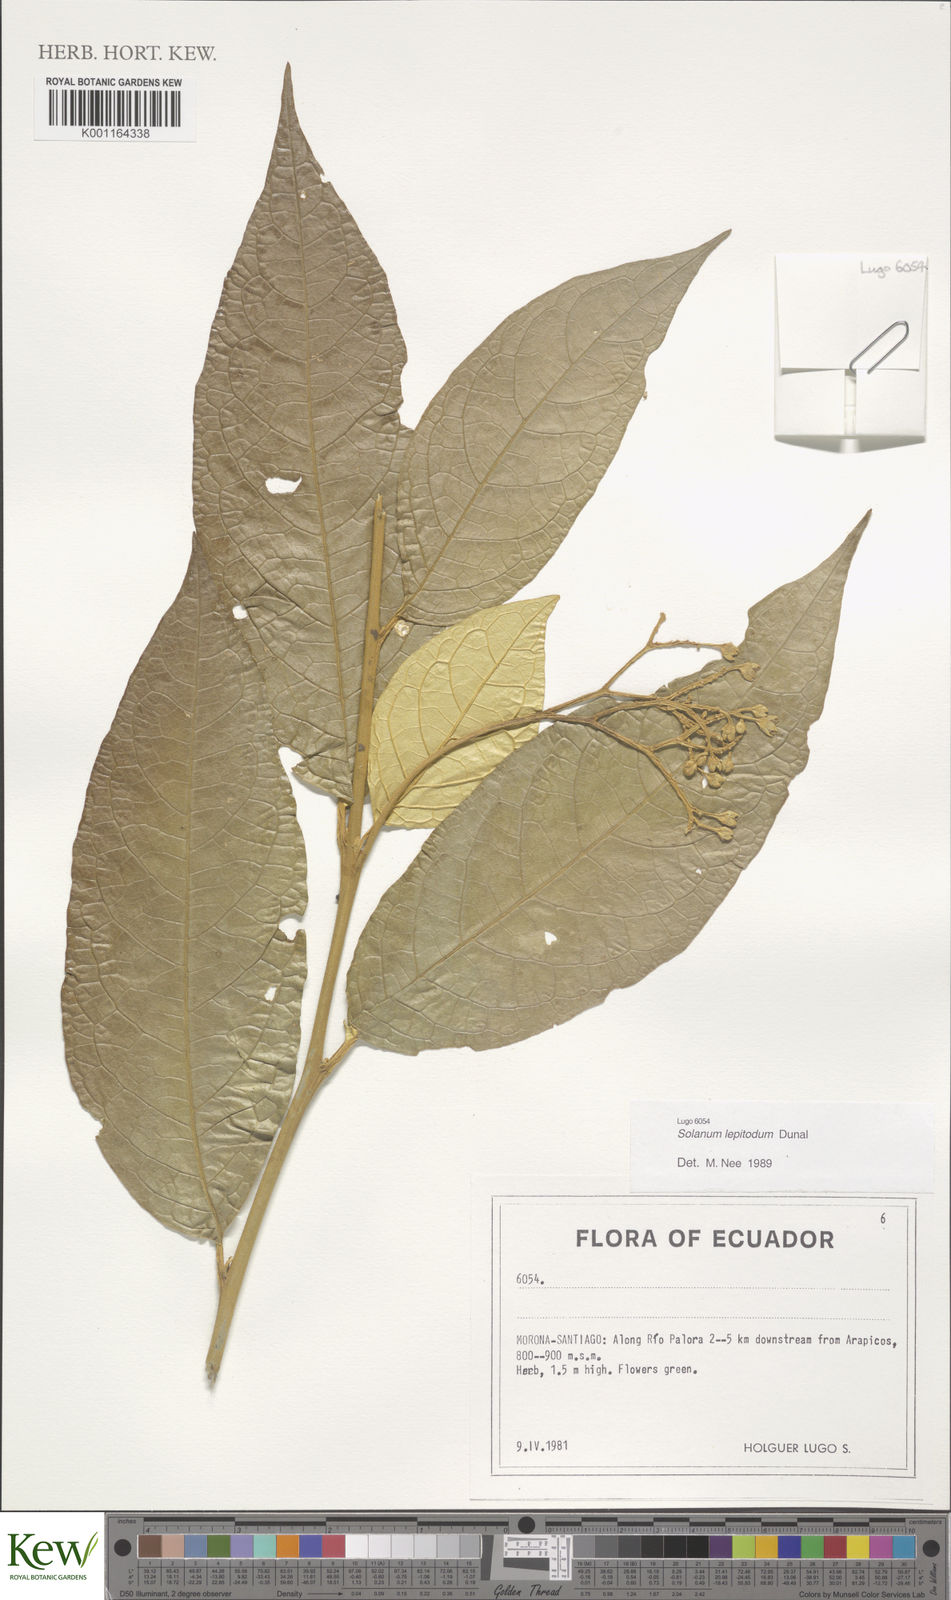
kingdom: Plantae
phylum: Tracheophyta
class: Magnoliopsida
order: Solanales
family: Solanaceae
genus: Solanum
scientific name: Solanum lepidotum
